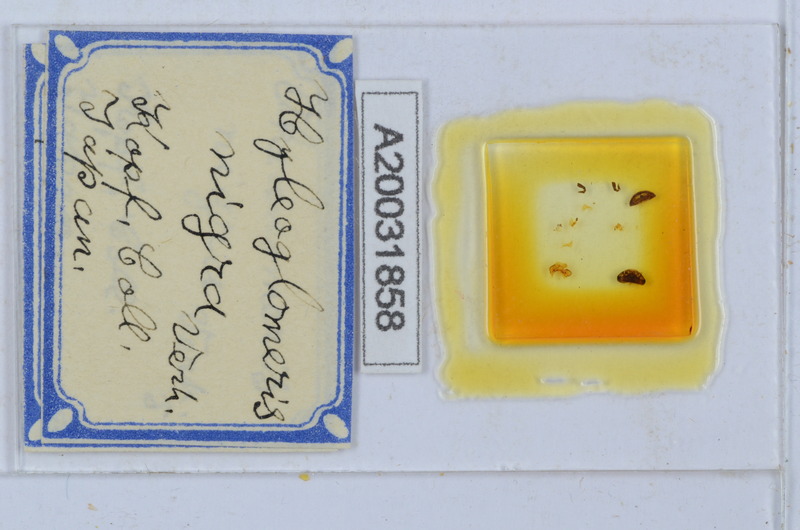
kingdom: Animalia
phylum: Arthropoda
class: Diplopoda
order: Glomerida
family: Glomeridae
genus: Hyleoglomeris
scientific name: Hyleoglomeris nigra
